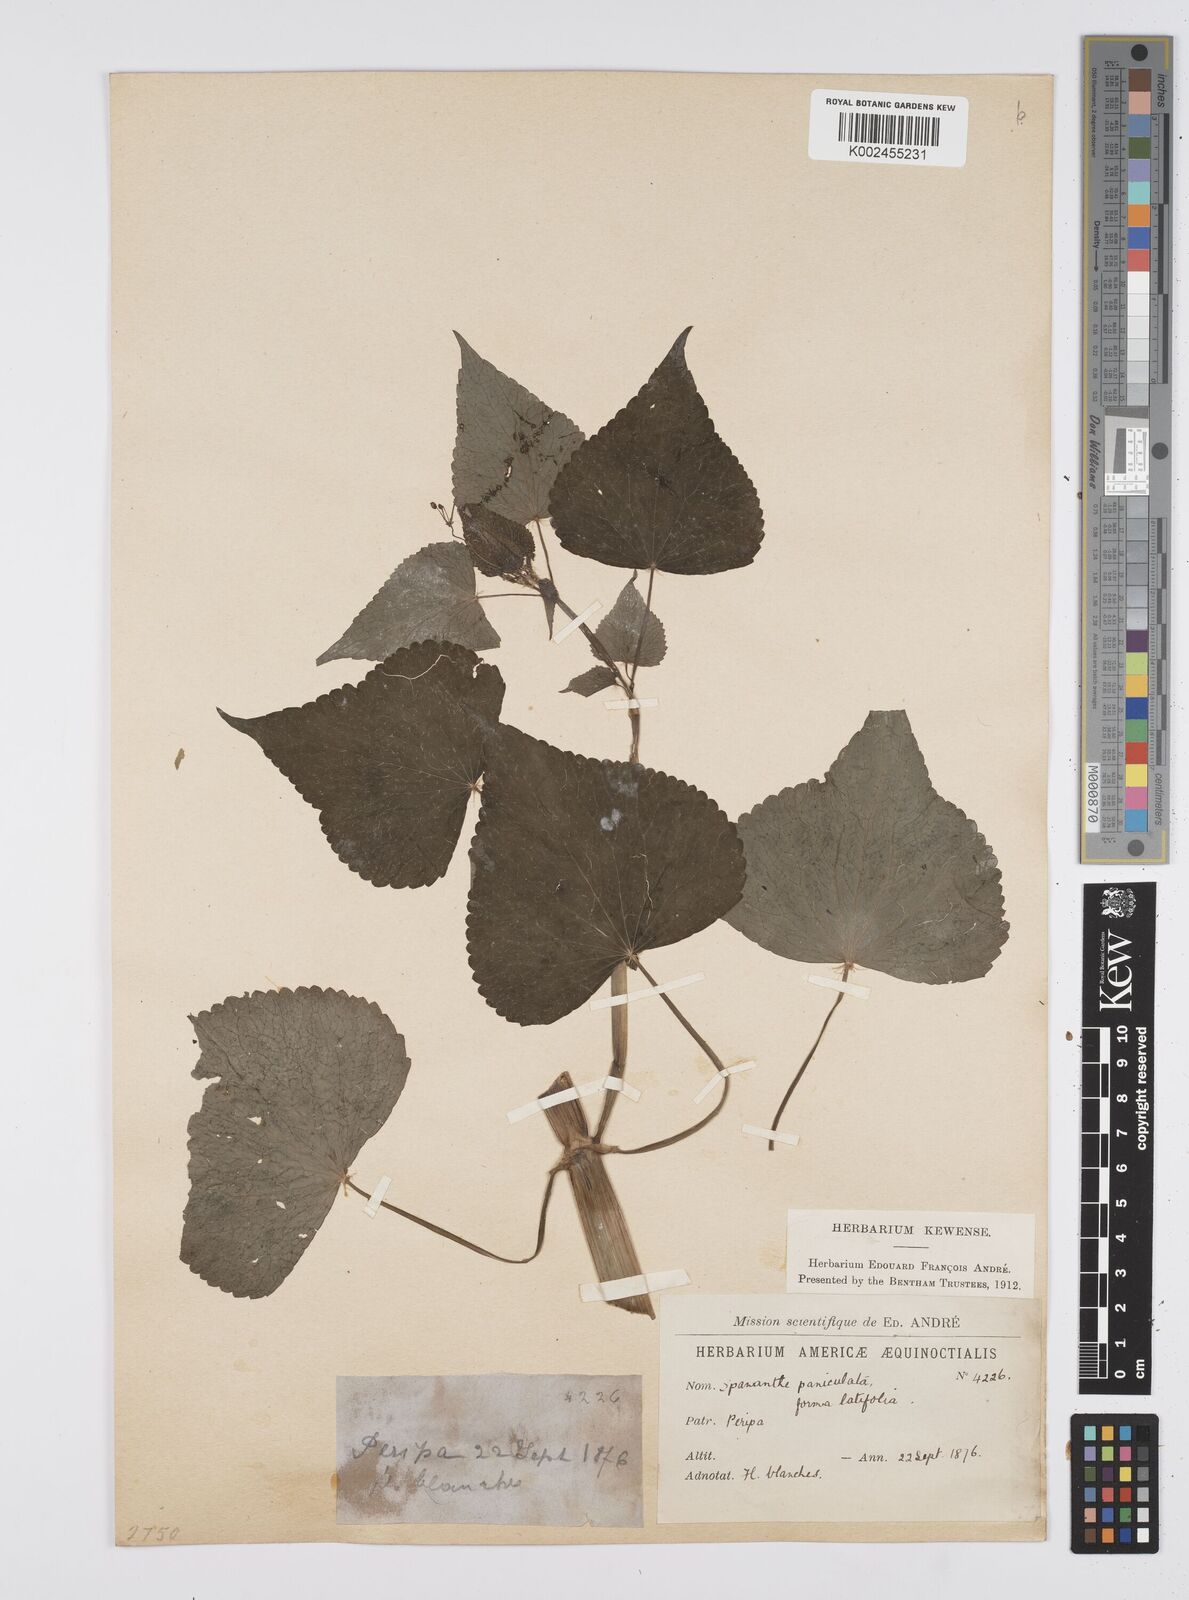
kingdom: Plantae
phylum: Tracheophyta
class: Magnoliopsida
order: Apiales
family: Apiaceae
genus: Azorella
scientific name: Azorella
